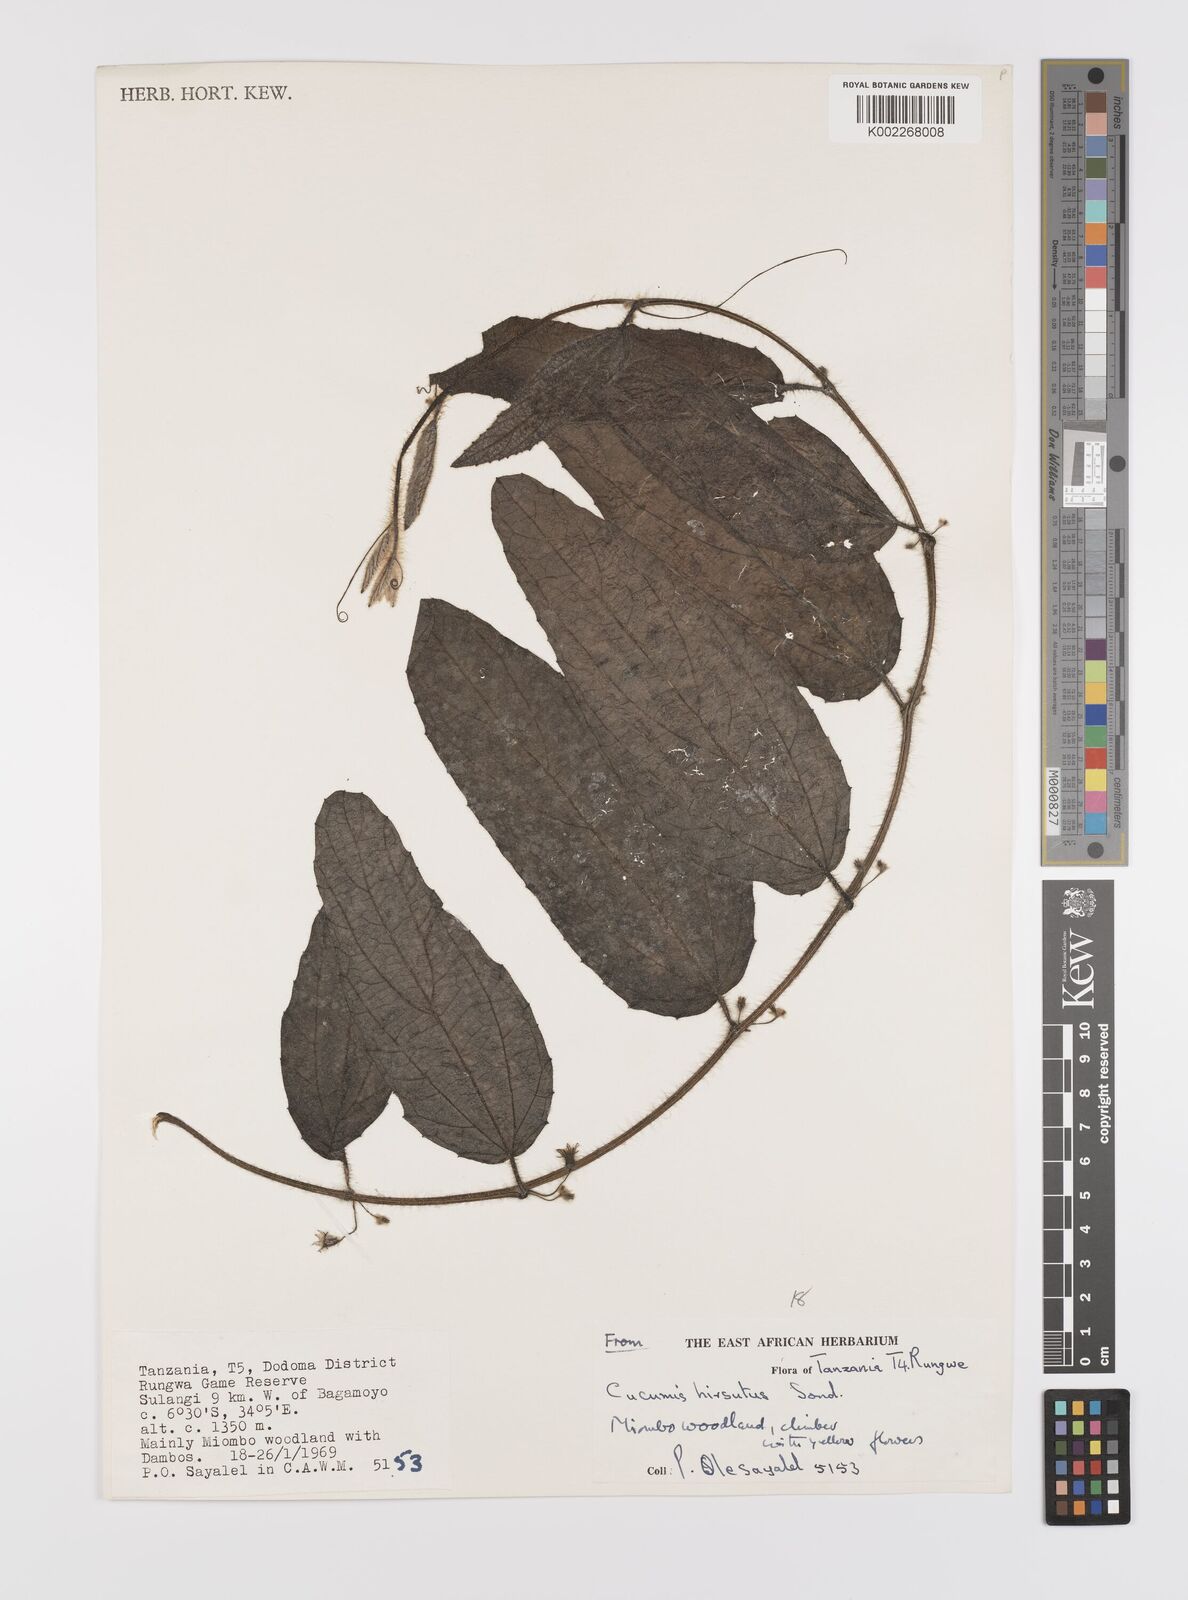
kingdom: Plantae
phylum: Tracheophyta
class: Magnoliopsida
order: Cucurbitales
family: Cucurbitaceae
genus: Cucumis
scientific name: Cucumis hirsutus
